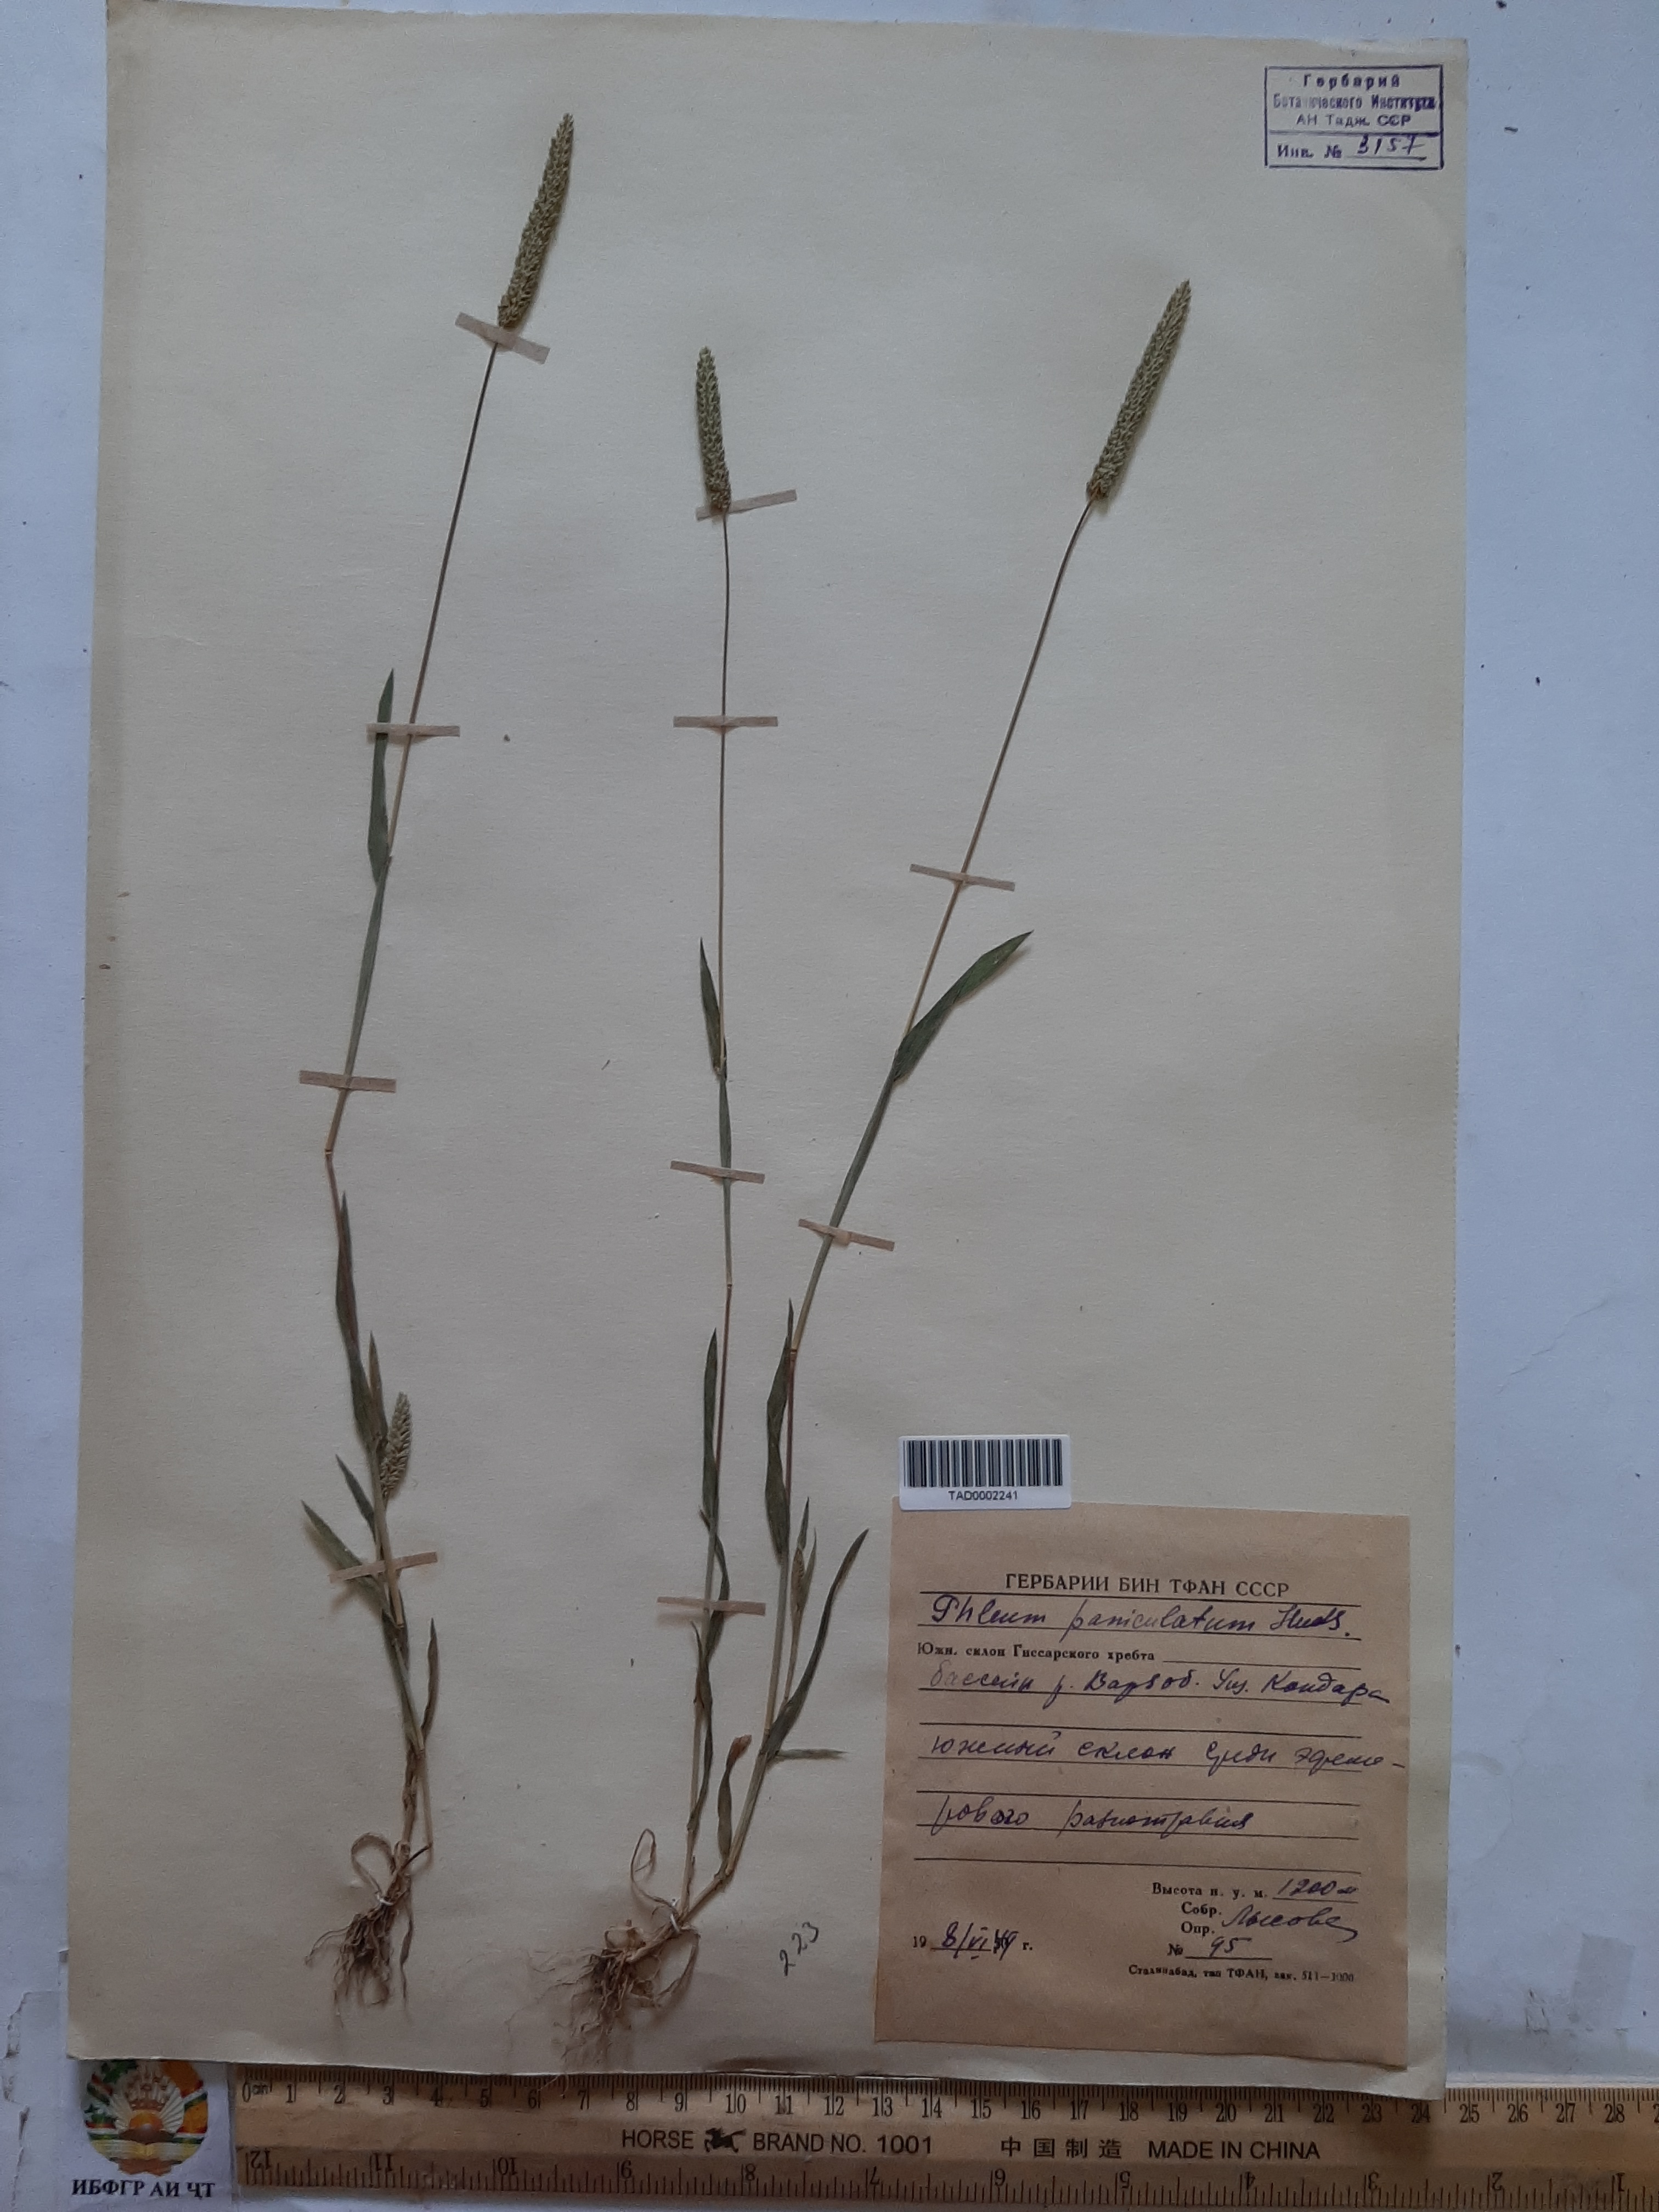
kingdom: Plantae
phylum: Tracheophyta
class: Liliopsida
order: Poales
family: Poaceae
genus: Phleum
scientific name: Phleum paniculatum
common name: British timothy
